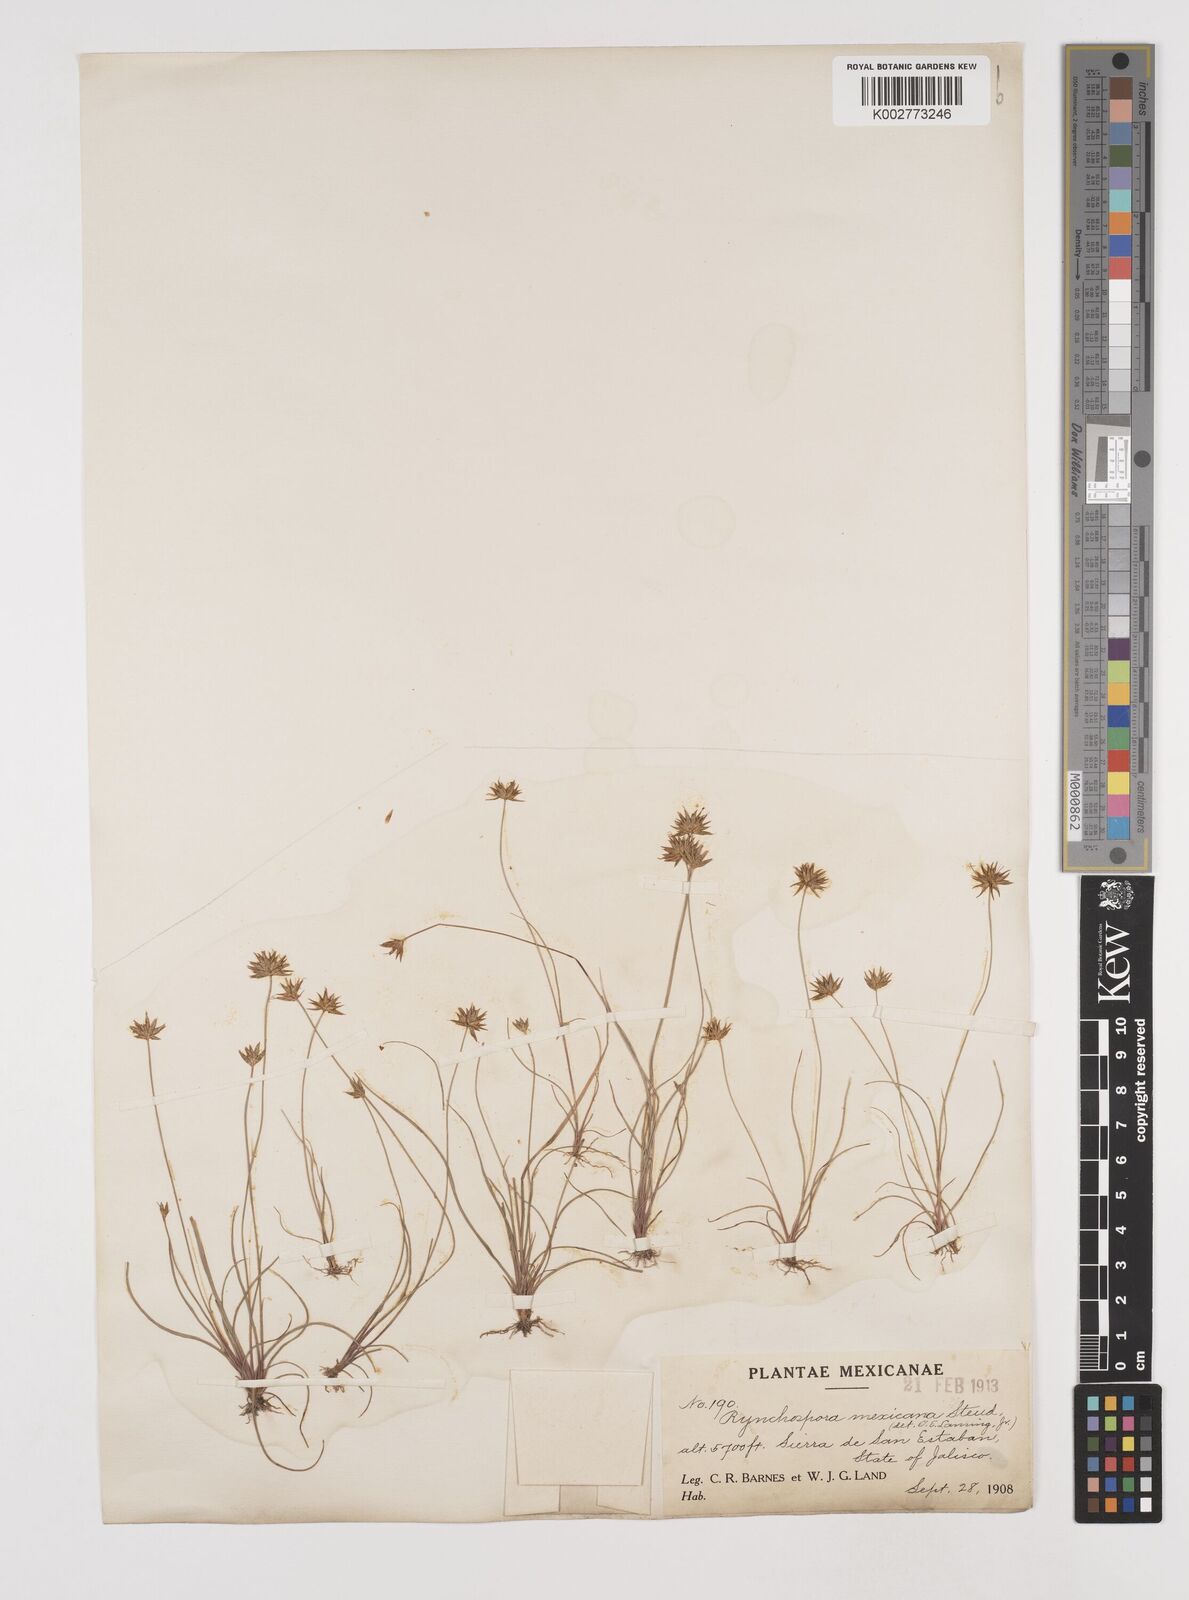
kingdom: Plantae
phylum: Tracheophyta
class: Liliopsida
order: Poales
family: Cyperaceae
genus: Rhynchospora
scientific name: Rhynchospora mexicana
